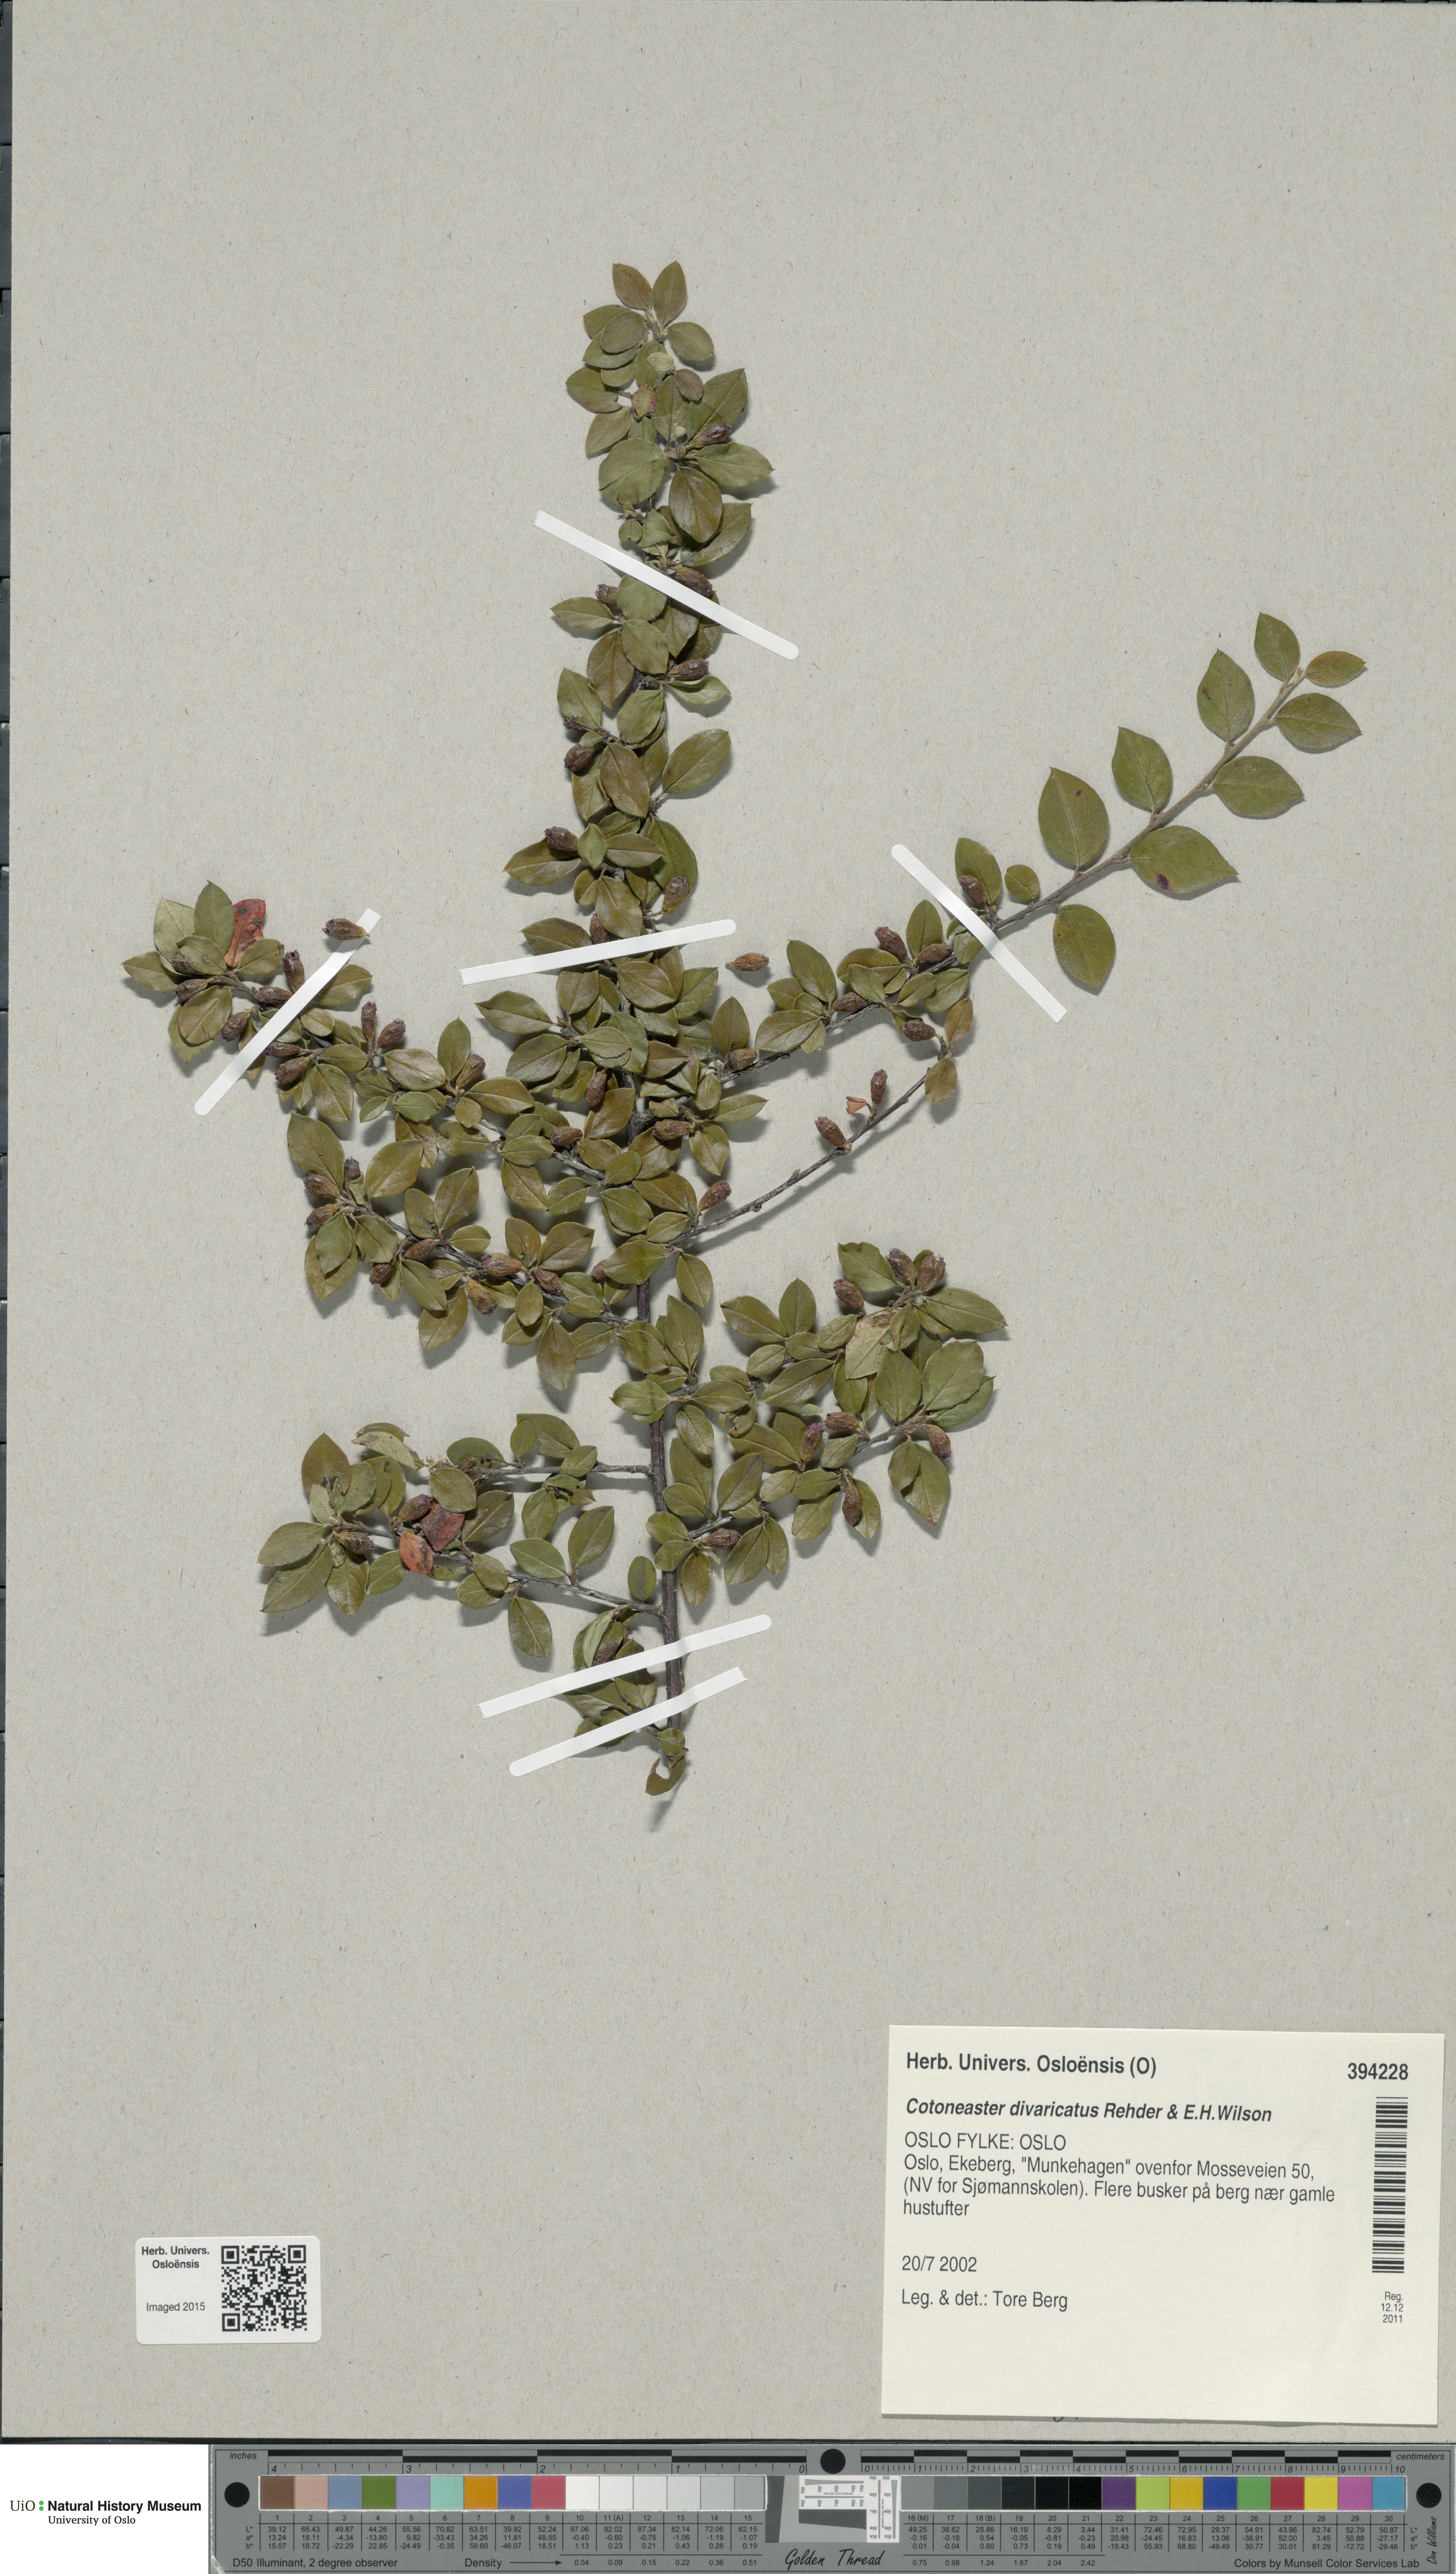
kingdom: Plantae
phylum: Tracheophyta
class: Magnoliopsida
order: Rosales
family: Rosaceae
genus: Cotoneaster
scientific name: Cotoneaster divaricatus
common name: Spreading cotoneaster
